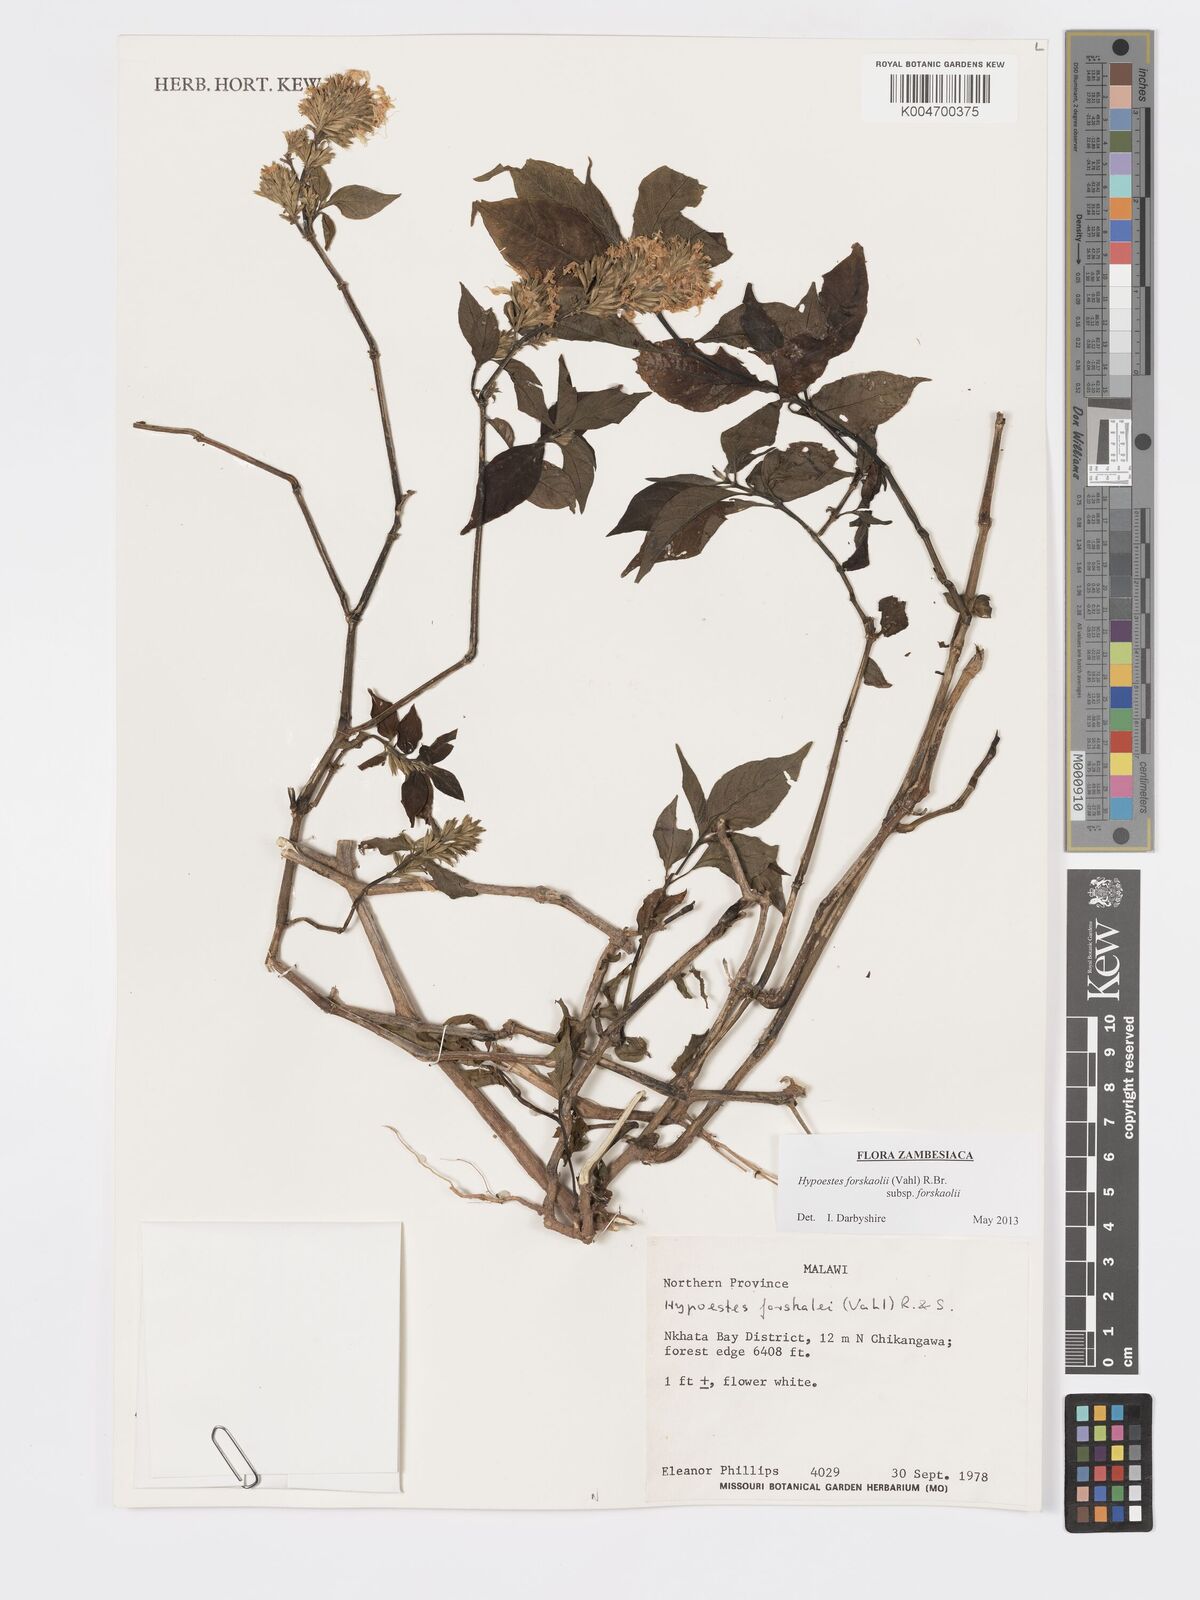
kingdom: Plantae
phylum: Tracheophyta
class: Magnoliopsida
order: Lamiales
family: Acanthaceae
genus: Hypoestes
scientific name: Hypoestes forskaolii
